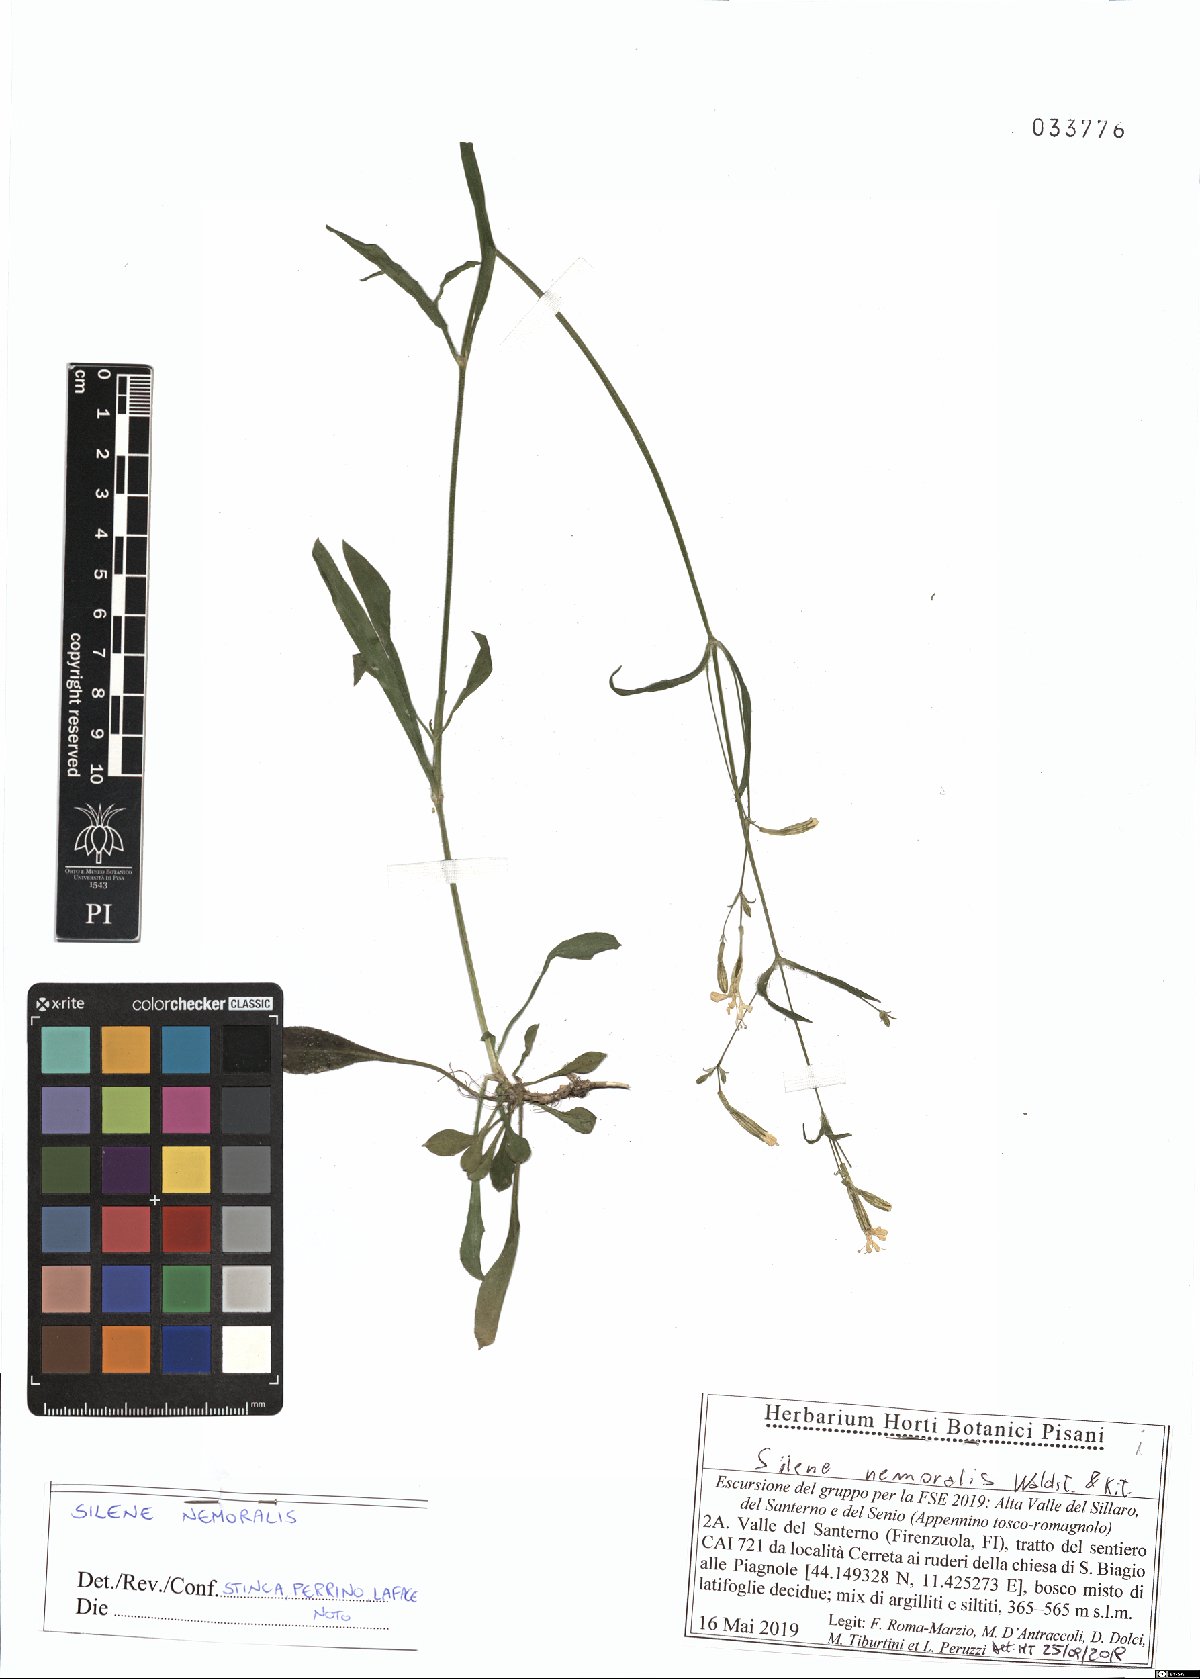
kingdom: Plantae
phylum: Tracheophyta
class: Magnoliopsida
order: Caryophyllales
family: Caryophyllaceae
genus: Silene
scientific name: Silene nemoralis
